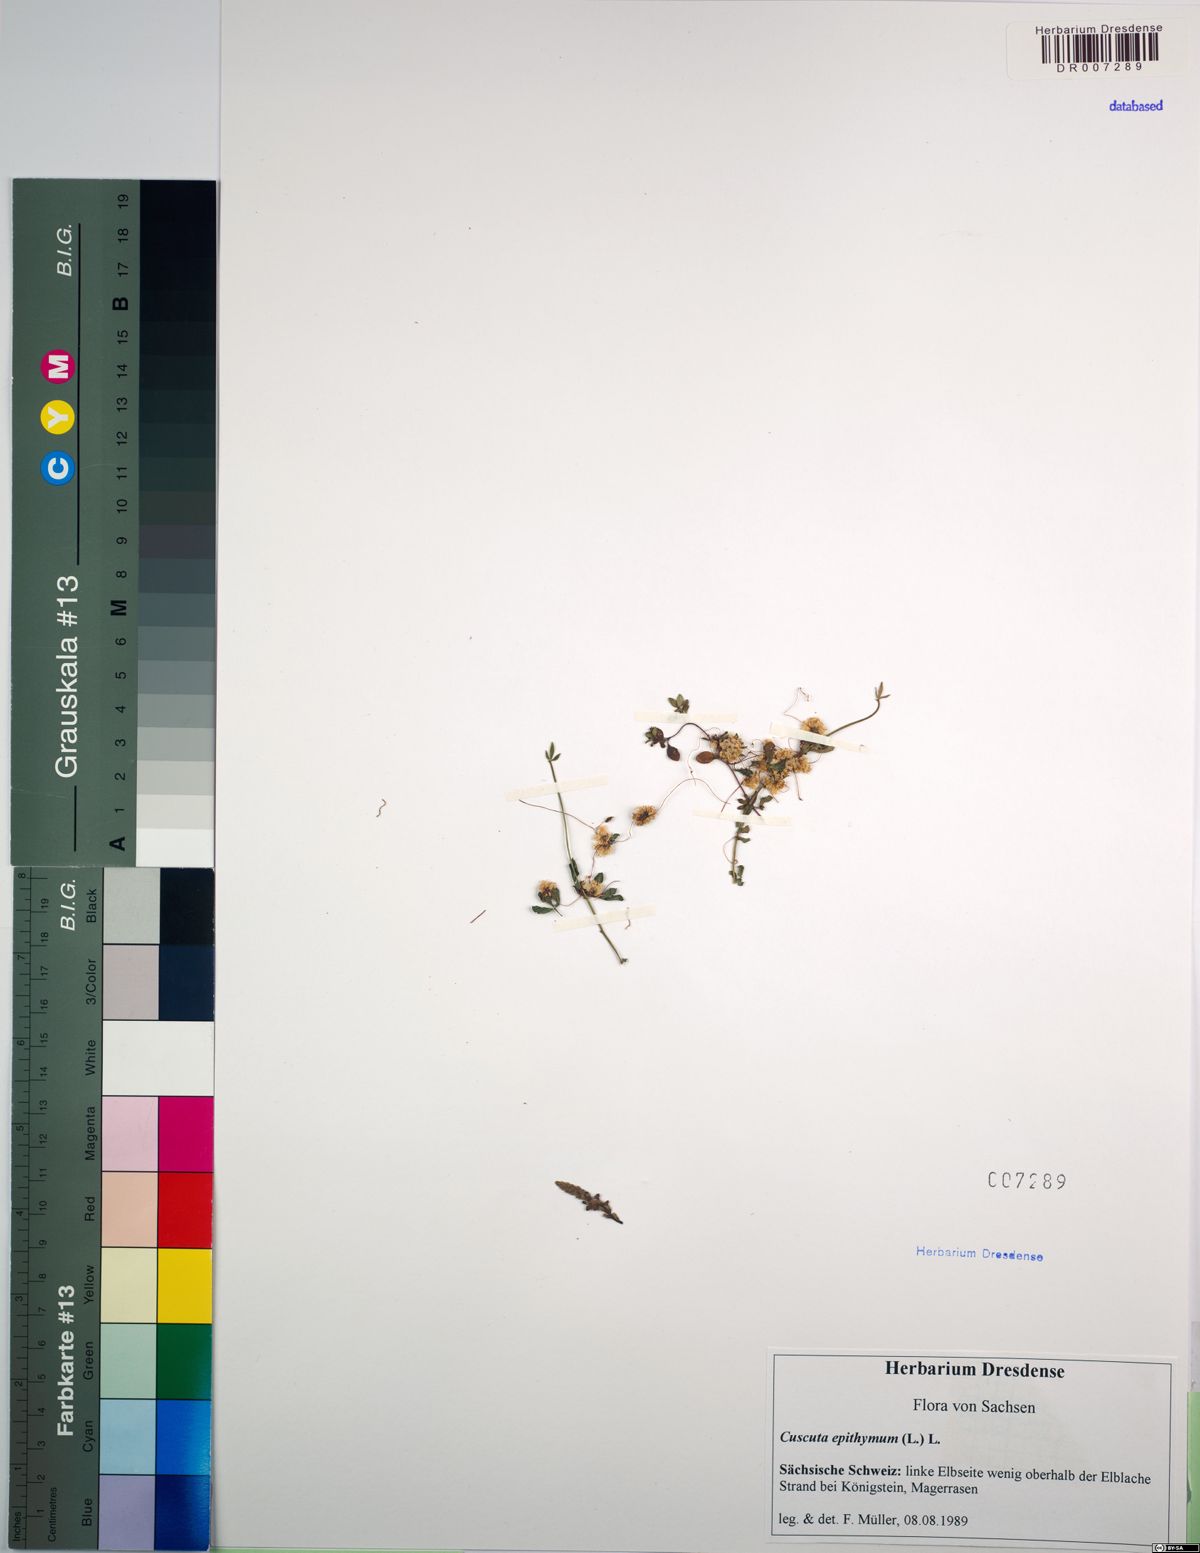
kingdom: Plantae
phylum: Tracheophyta
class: Magnoliopsida
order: Solanales
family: Convolvulaceae
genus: Cuscuta
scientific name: Cuscuta epithymum
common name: Clover dodder
